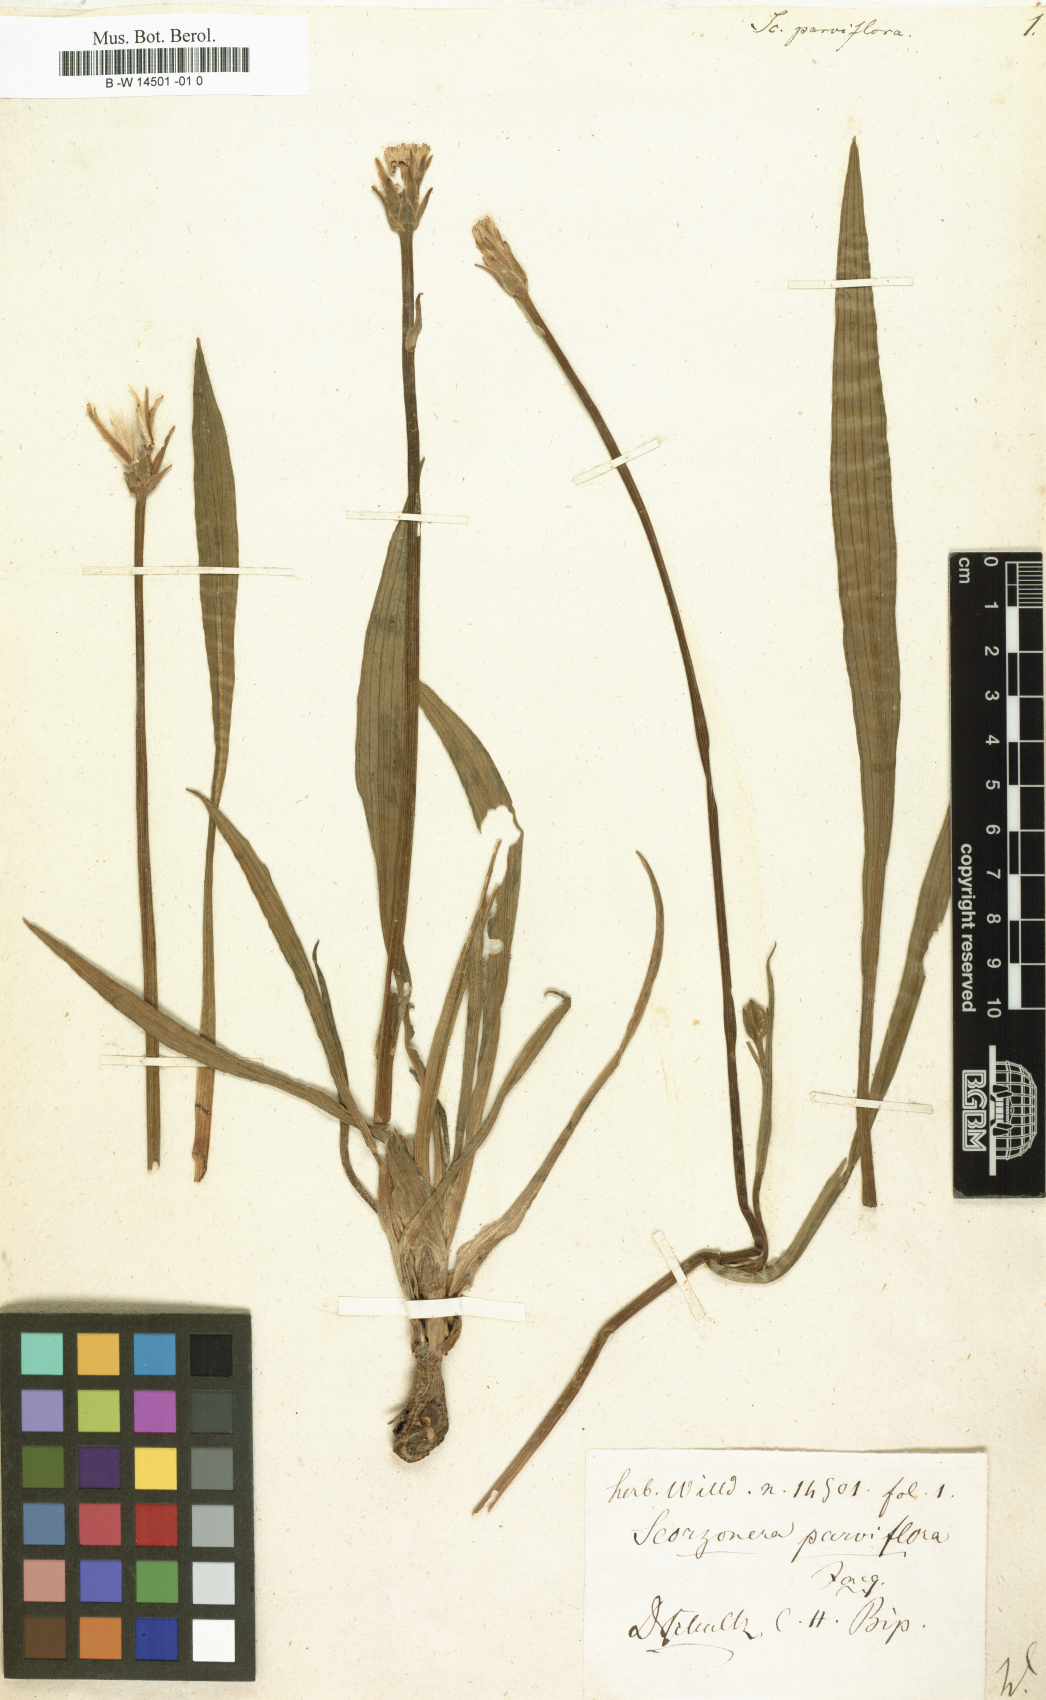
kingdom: Plantae
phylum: Tracheophyta
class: Magnoliopsida
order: Asterales
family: Asteraceae
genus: Scorzonera
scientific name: Scorzonera parviflora
